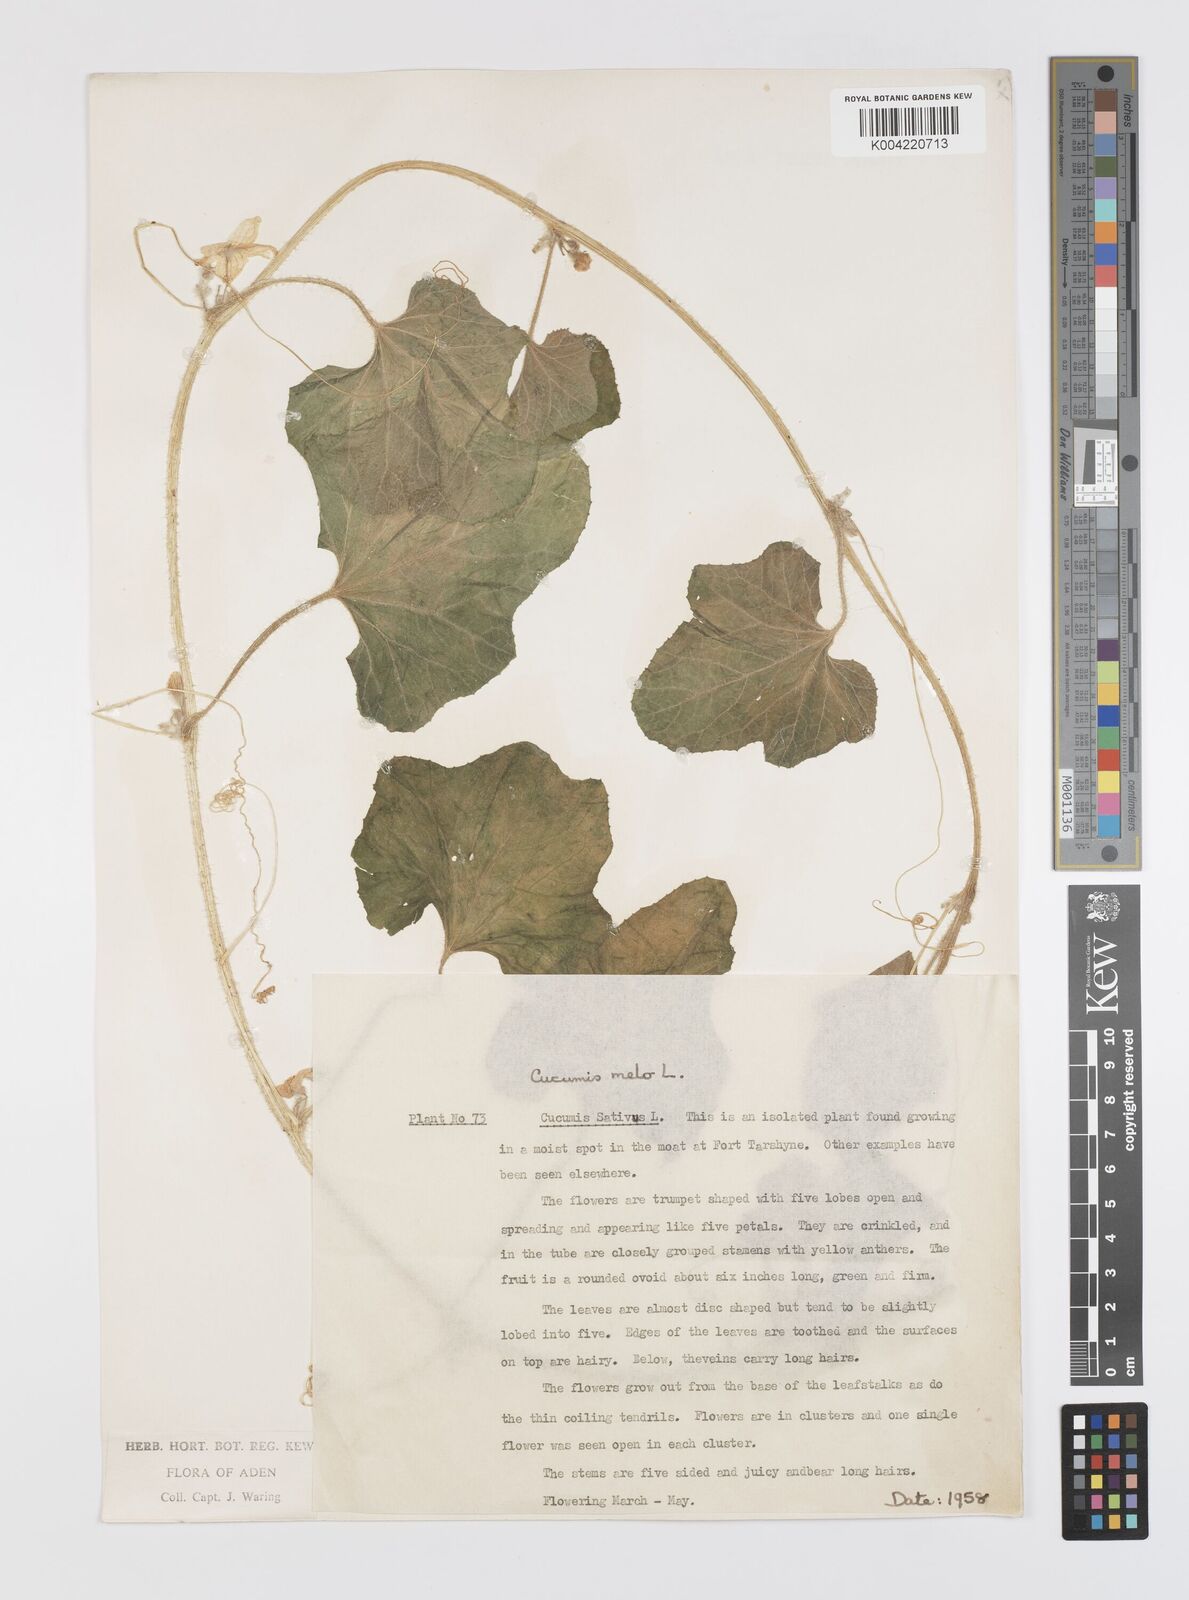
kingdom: Plantae
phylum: Tracheophyta
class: Magnoliopsida
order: Cucurbitales
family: Cucurbitaceae
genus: Cucumis
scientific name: Cucumis melo
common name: Melon
